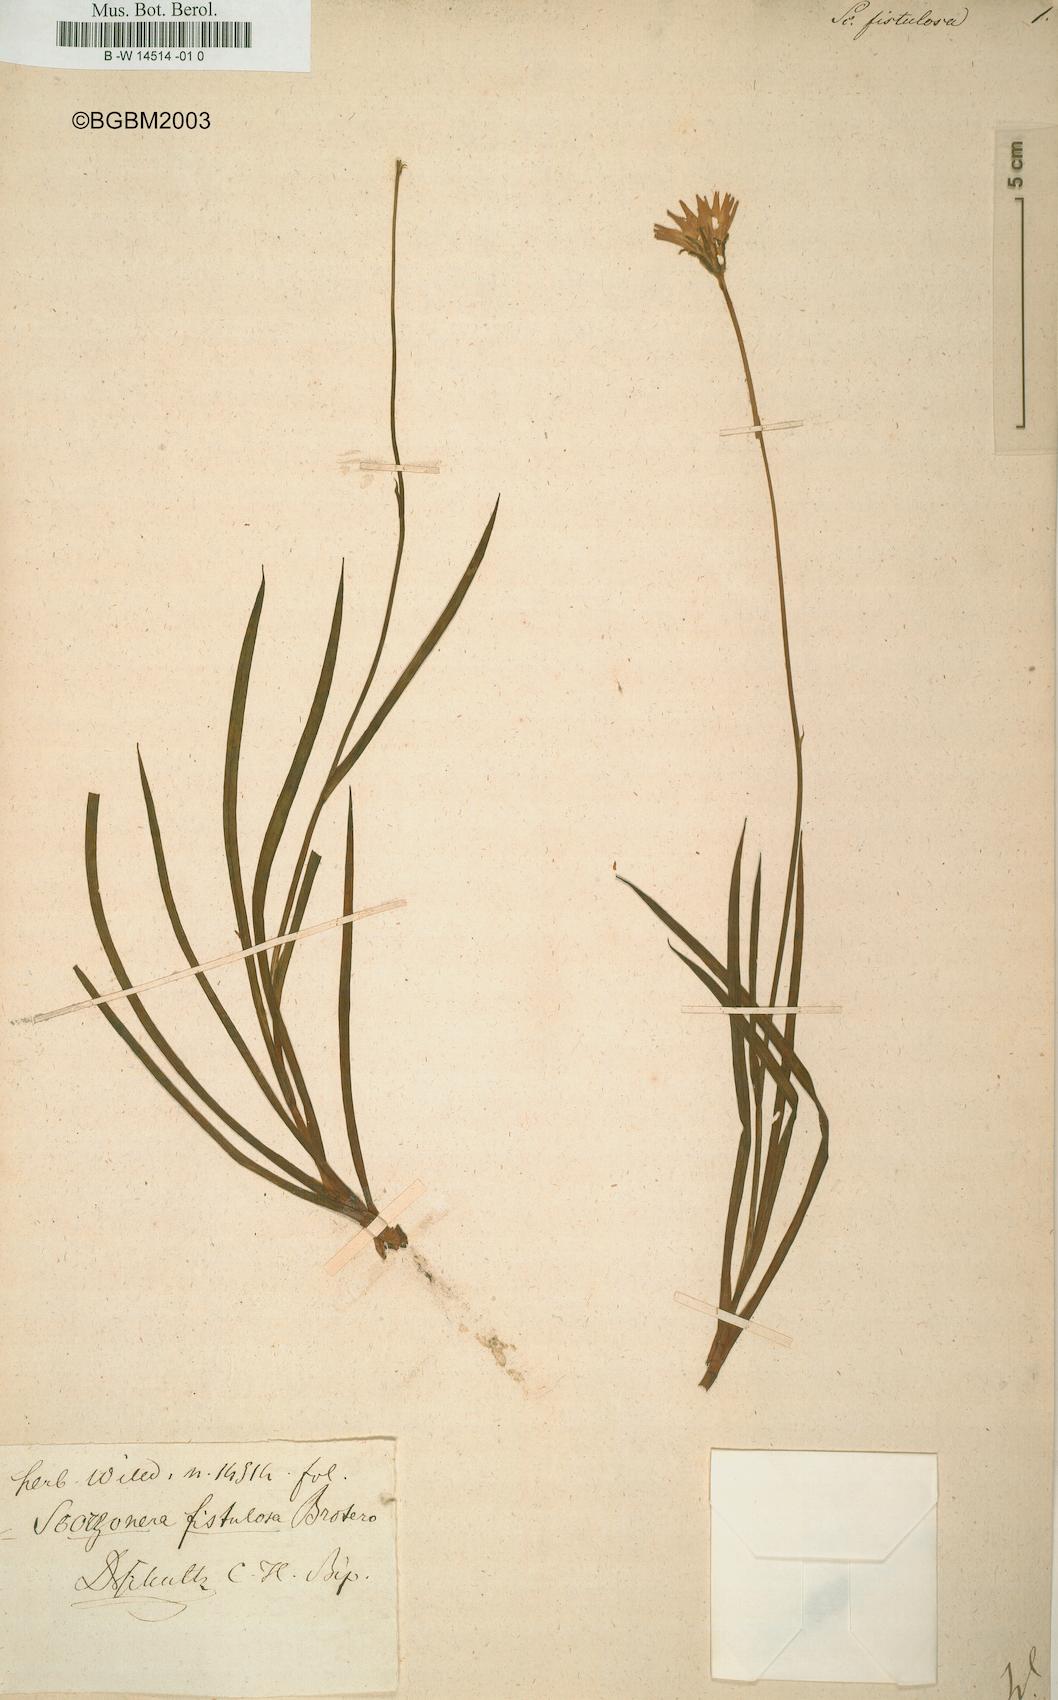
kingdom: Plantae
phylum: Tracheophyta
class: Magnoliopsida
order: Asterales
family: Asteraceae
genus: Avellara
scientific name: Avellara fistulosa
